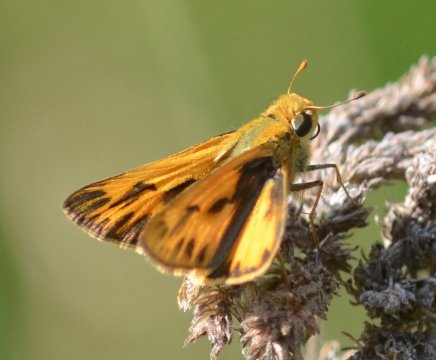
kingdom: Animalia
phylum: Arthropoda
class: Insecta
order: Lepidoptera
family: Hesperiidae
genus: Hylephila
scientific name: Hylephila phyleus
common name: Fiery Skipper
